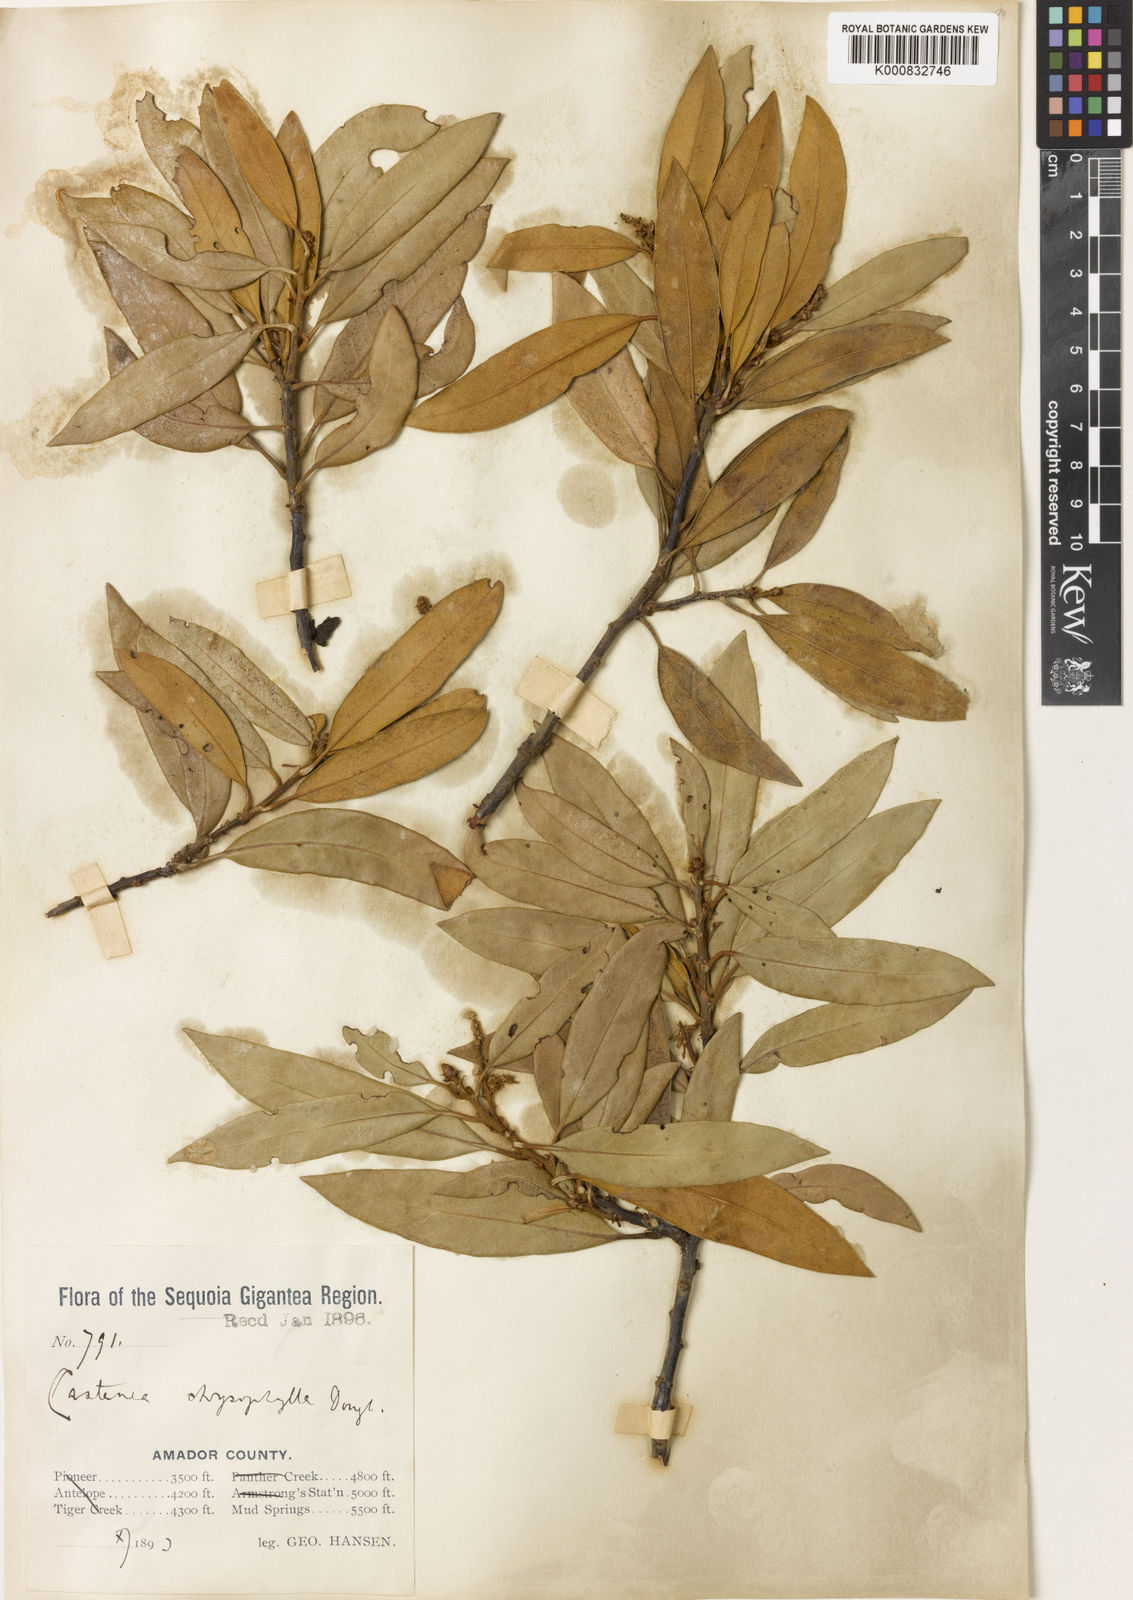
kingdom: Plantae
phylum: Tracheophyta
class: Magnoliopsida
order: Fagales
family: Fagaceae
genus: Chrysolepis
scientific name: Chrysolepis chrysophylla
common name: Giant chinquapin
